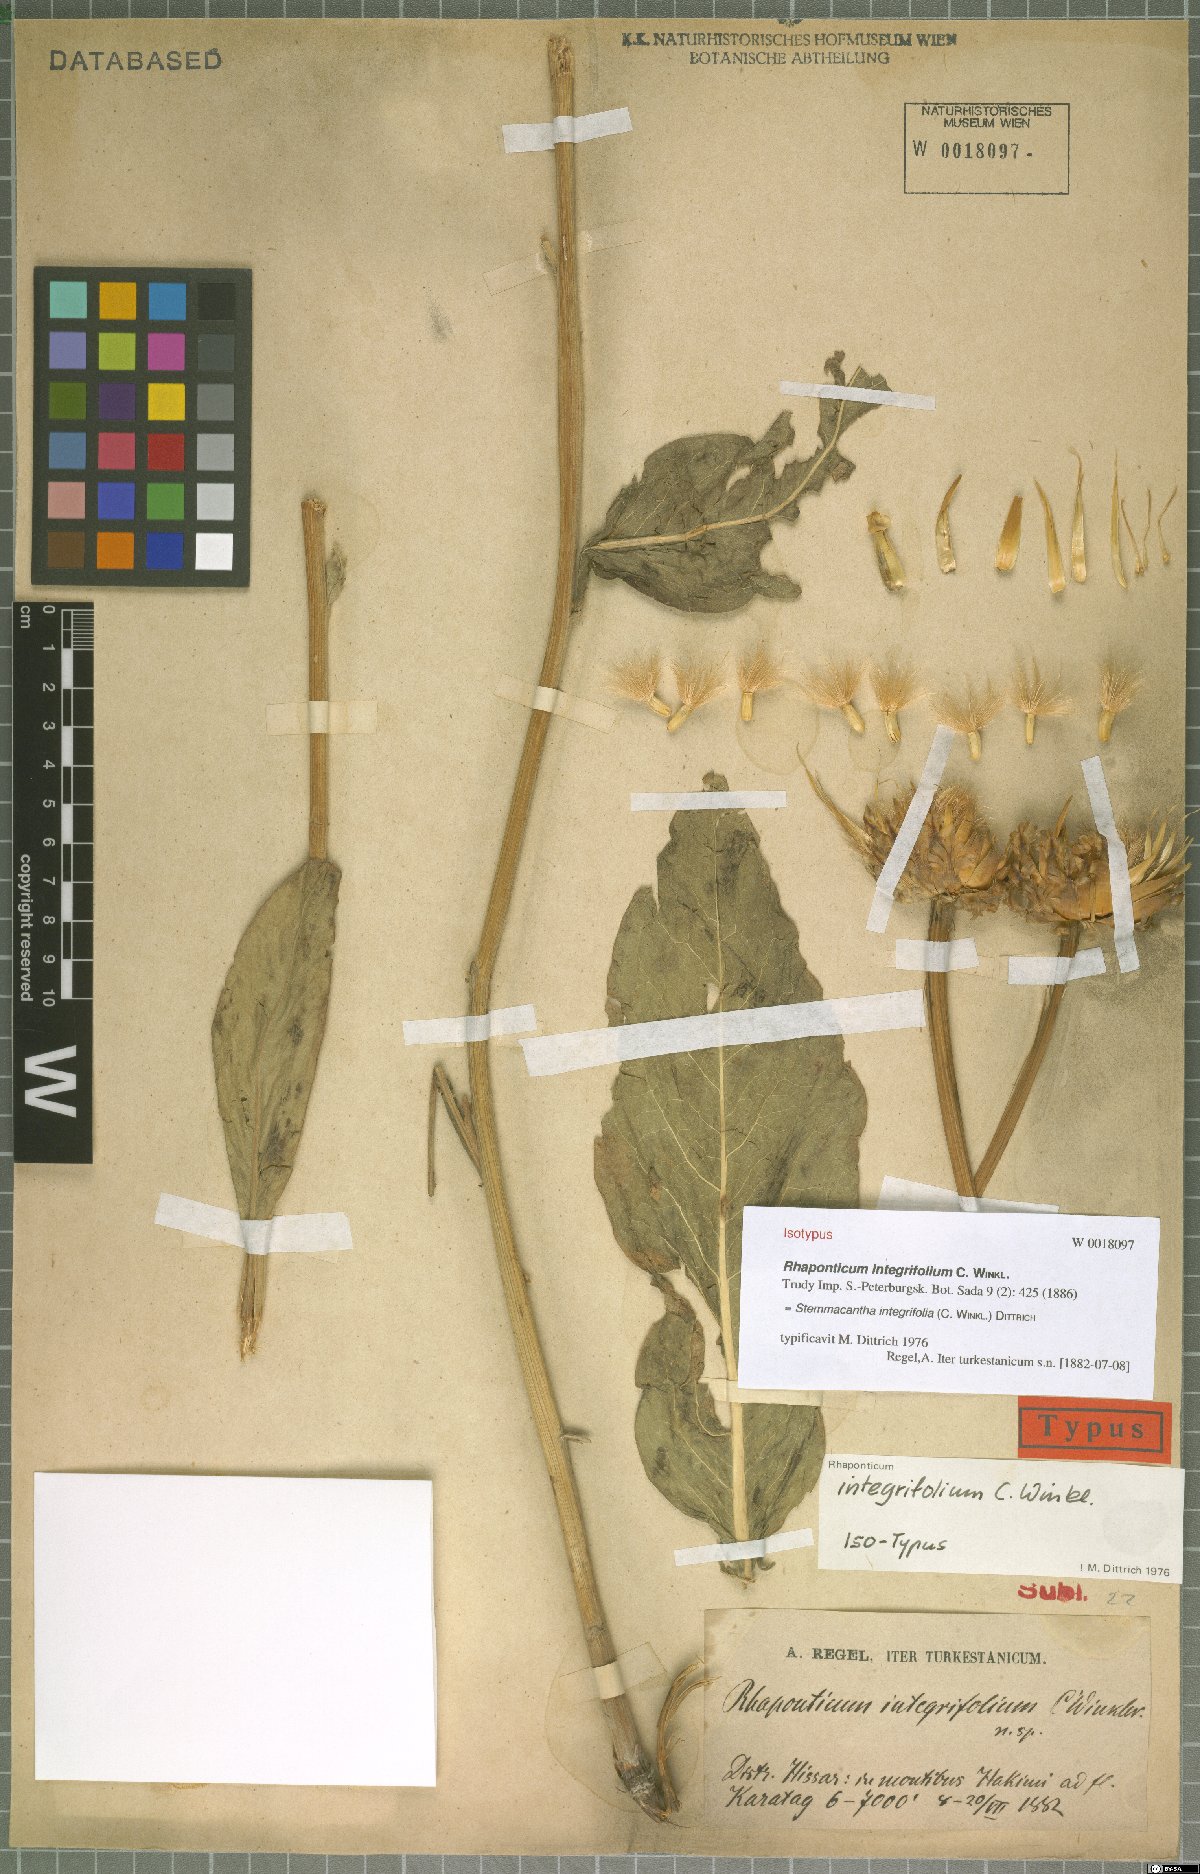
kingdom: Plantae
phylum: Tracheophyta
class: Magnoliopsida
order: Asterales
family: Asteraceae
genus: Leuzea
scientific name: Leuzea integrifolia
